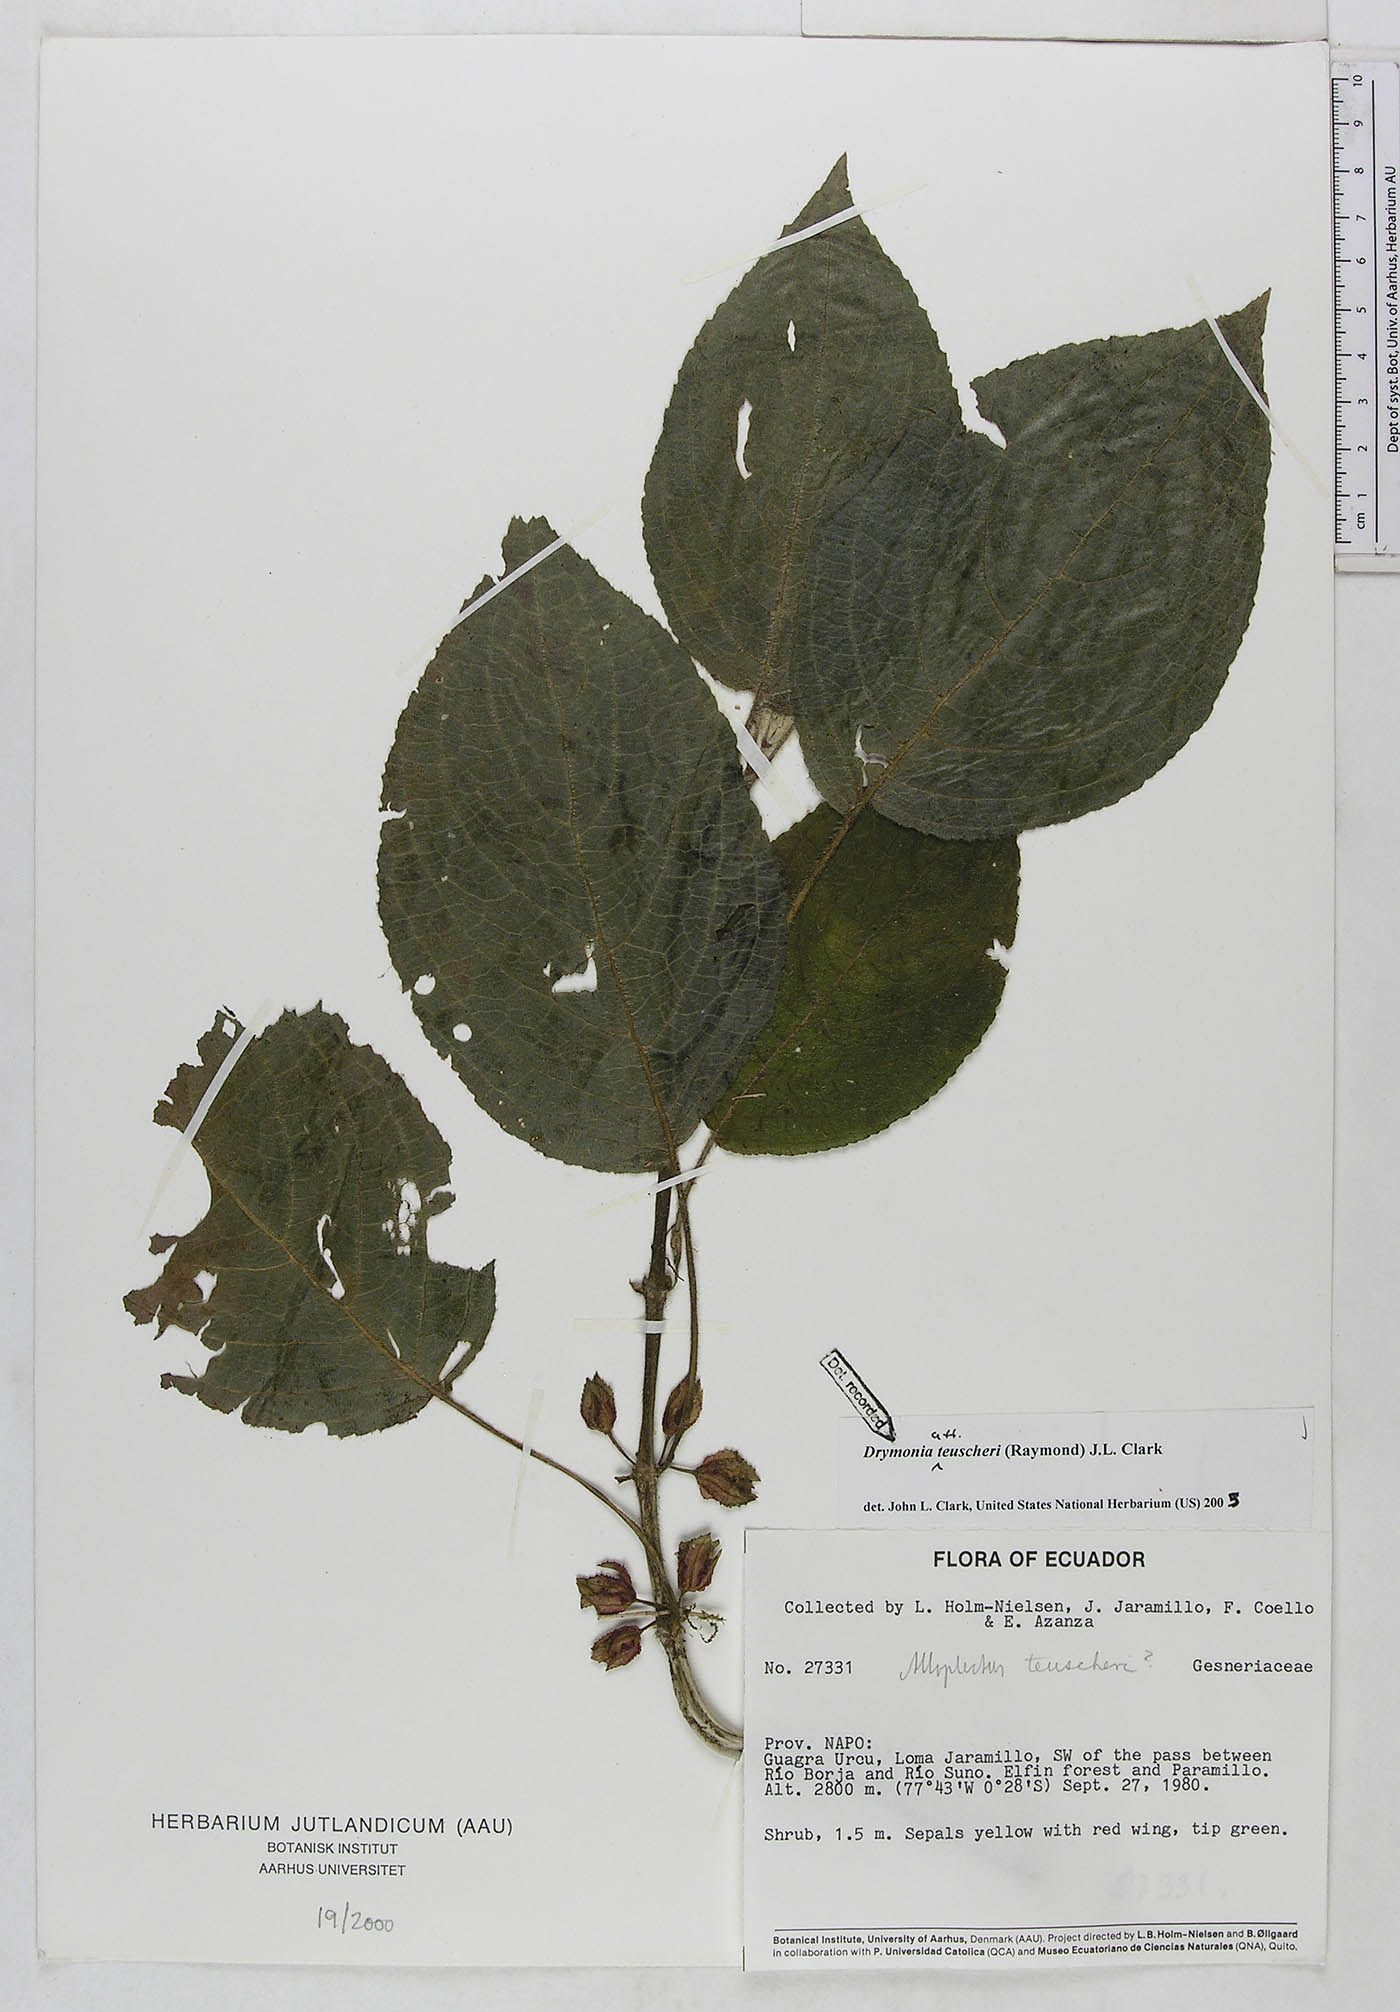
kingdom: Plantae
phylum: Tracheophyta
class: Magnoliopsida
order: Lamiales
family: Gesneriaceae
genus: Drymonia
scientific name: Drymonia teuscheri
